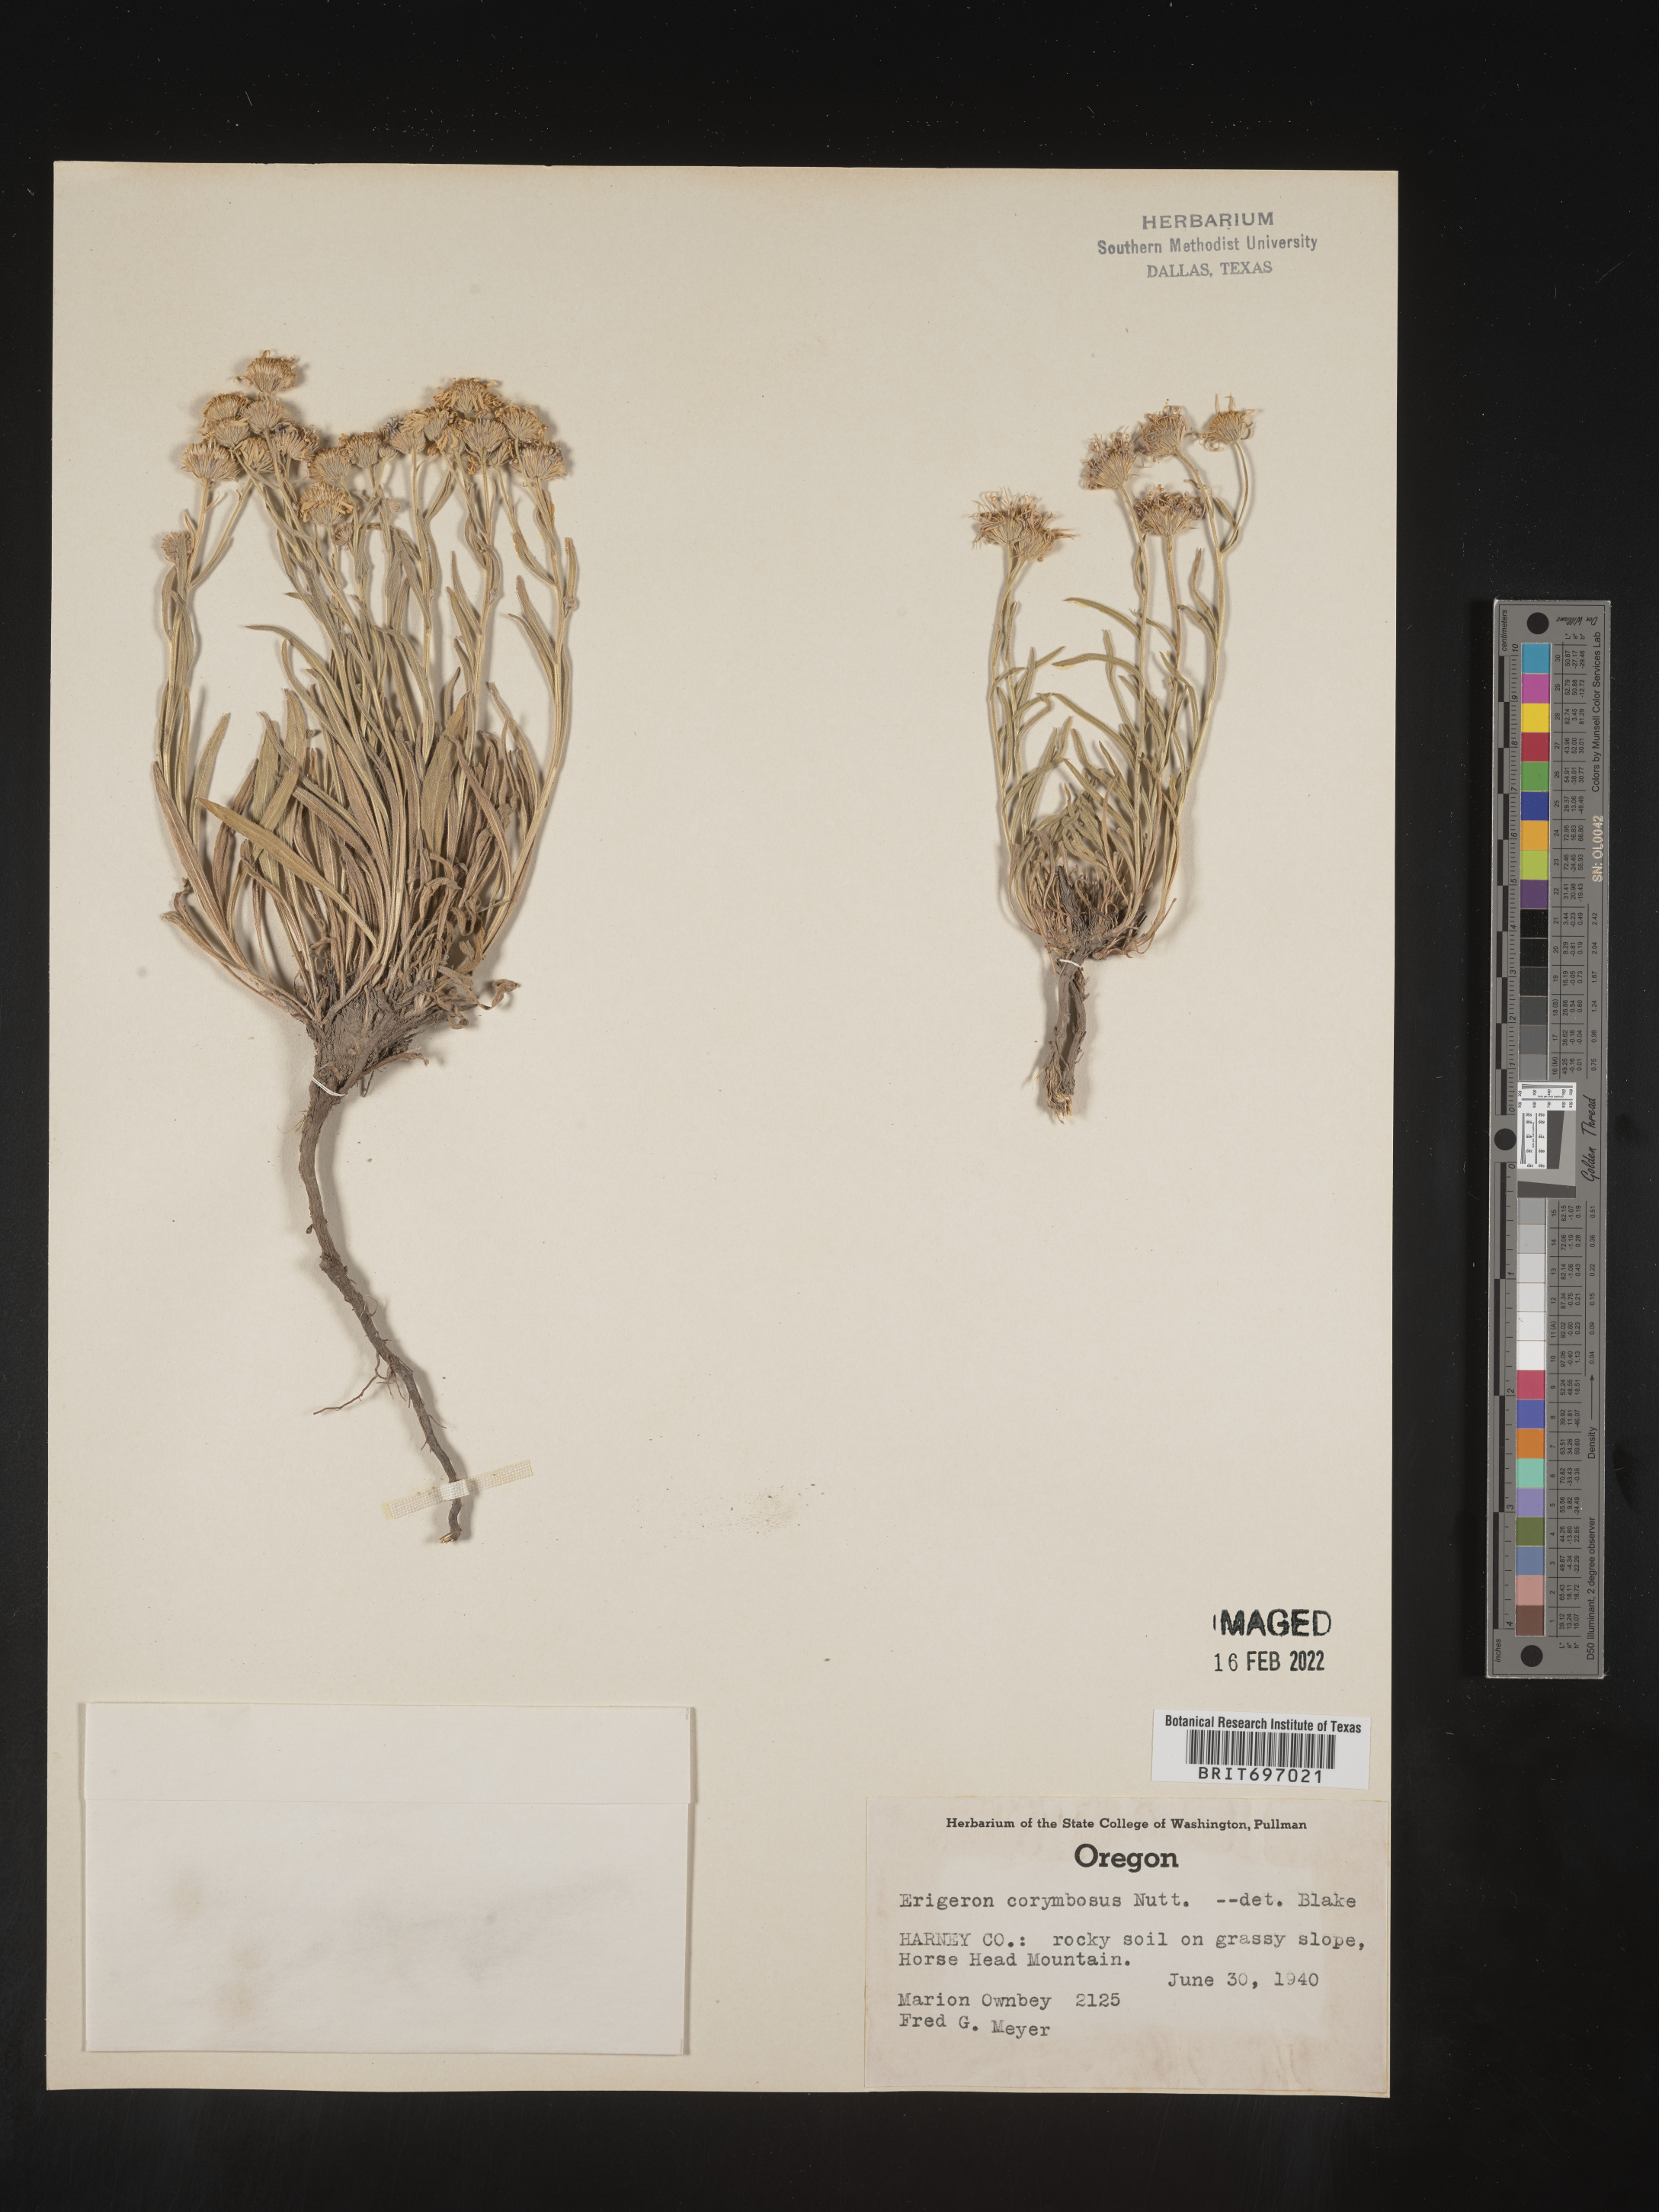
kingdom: Plantae
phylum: Tracheophyta
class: Magnoliopsida
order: Asterales
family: Asteraceae
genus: Erigeron
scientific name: Erigeron corymbosus
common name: Longleaf fleabane
